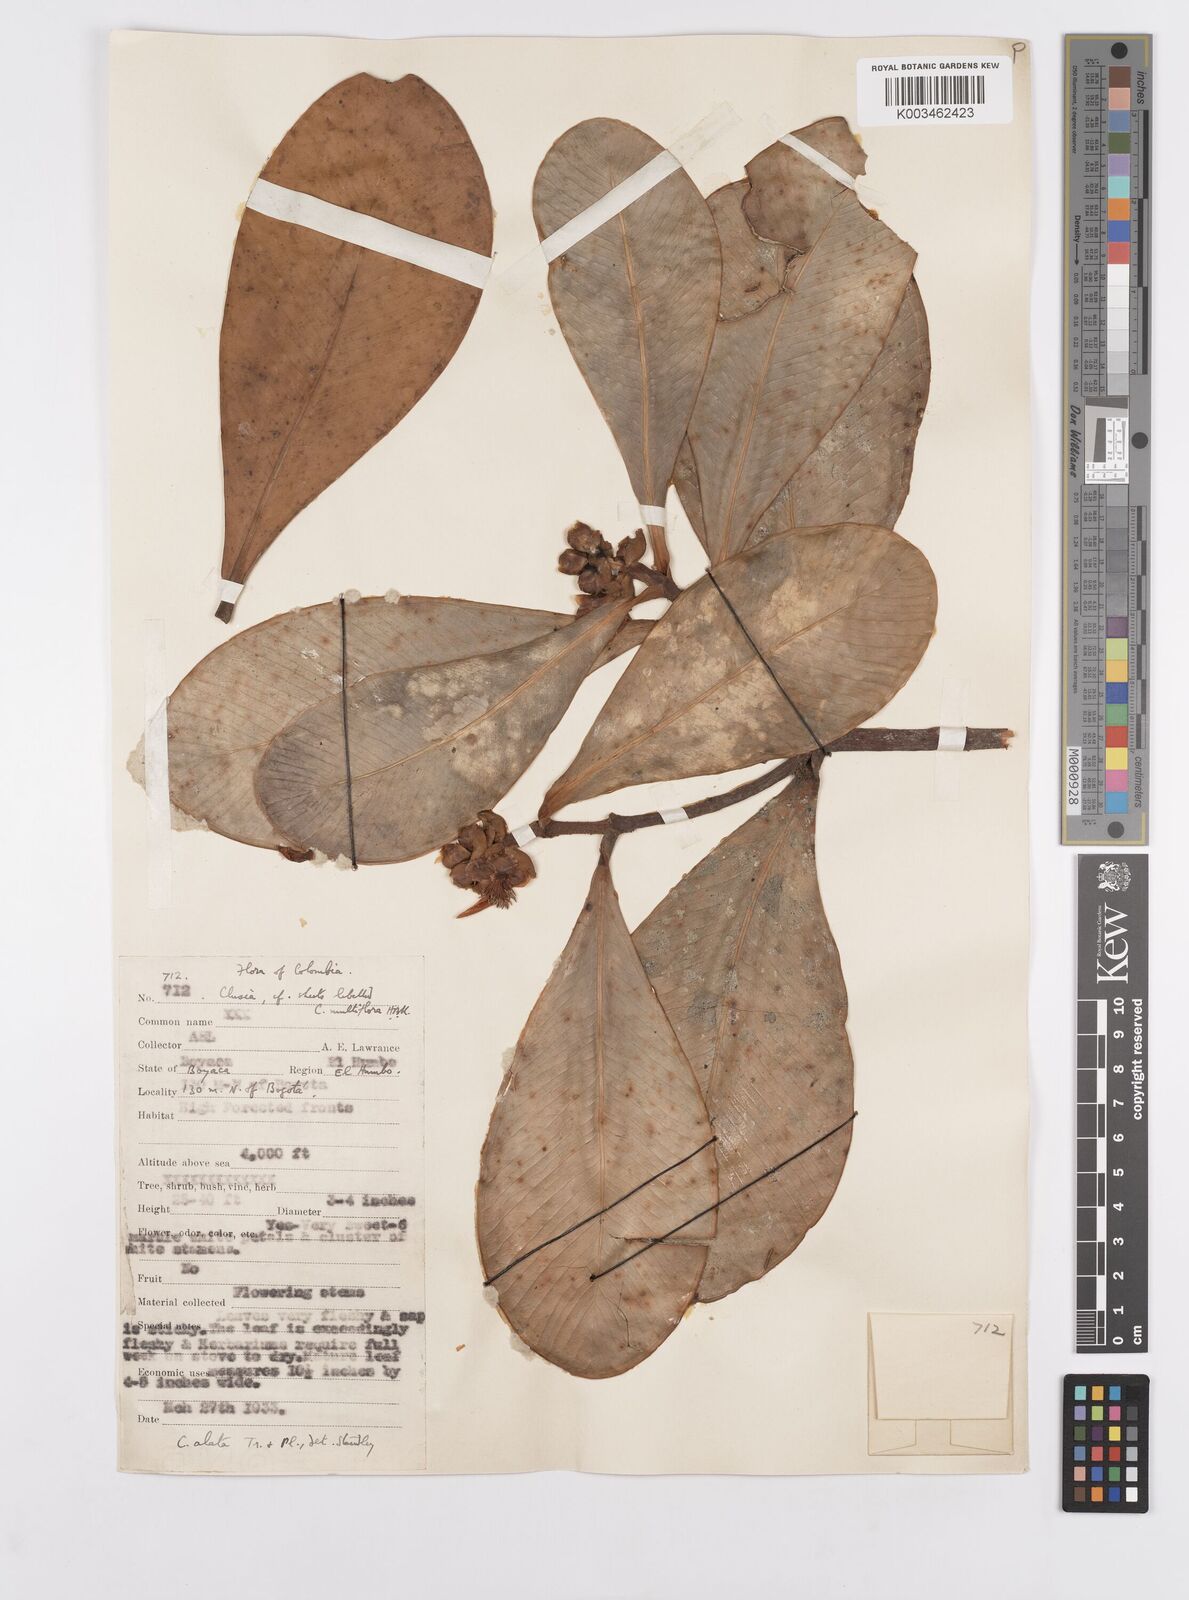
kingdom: Plantae
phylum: Tracheophyta
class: Magnoliopsida
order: Malpighiales
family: Clusiaceae
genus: Clusia
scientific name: Clusia alata
